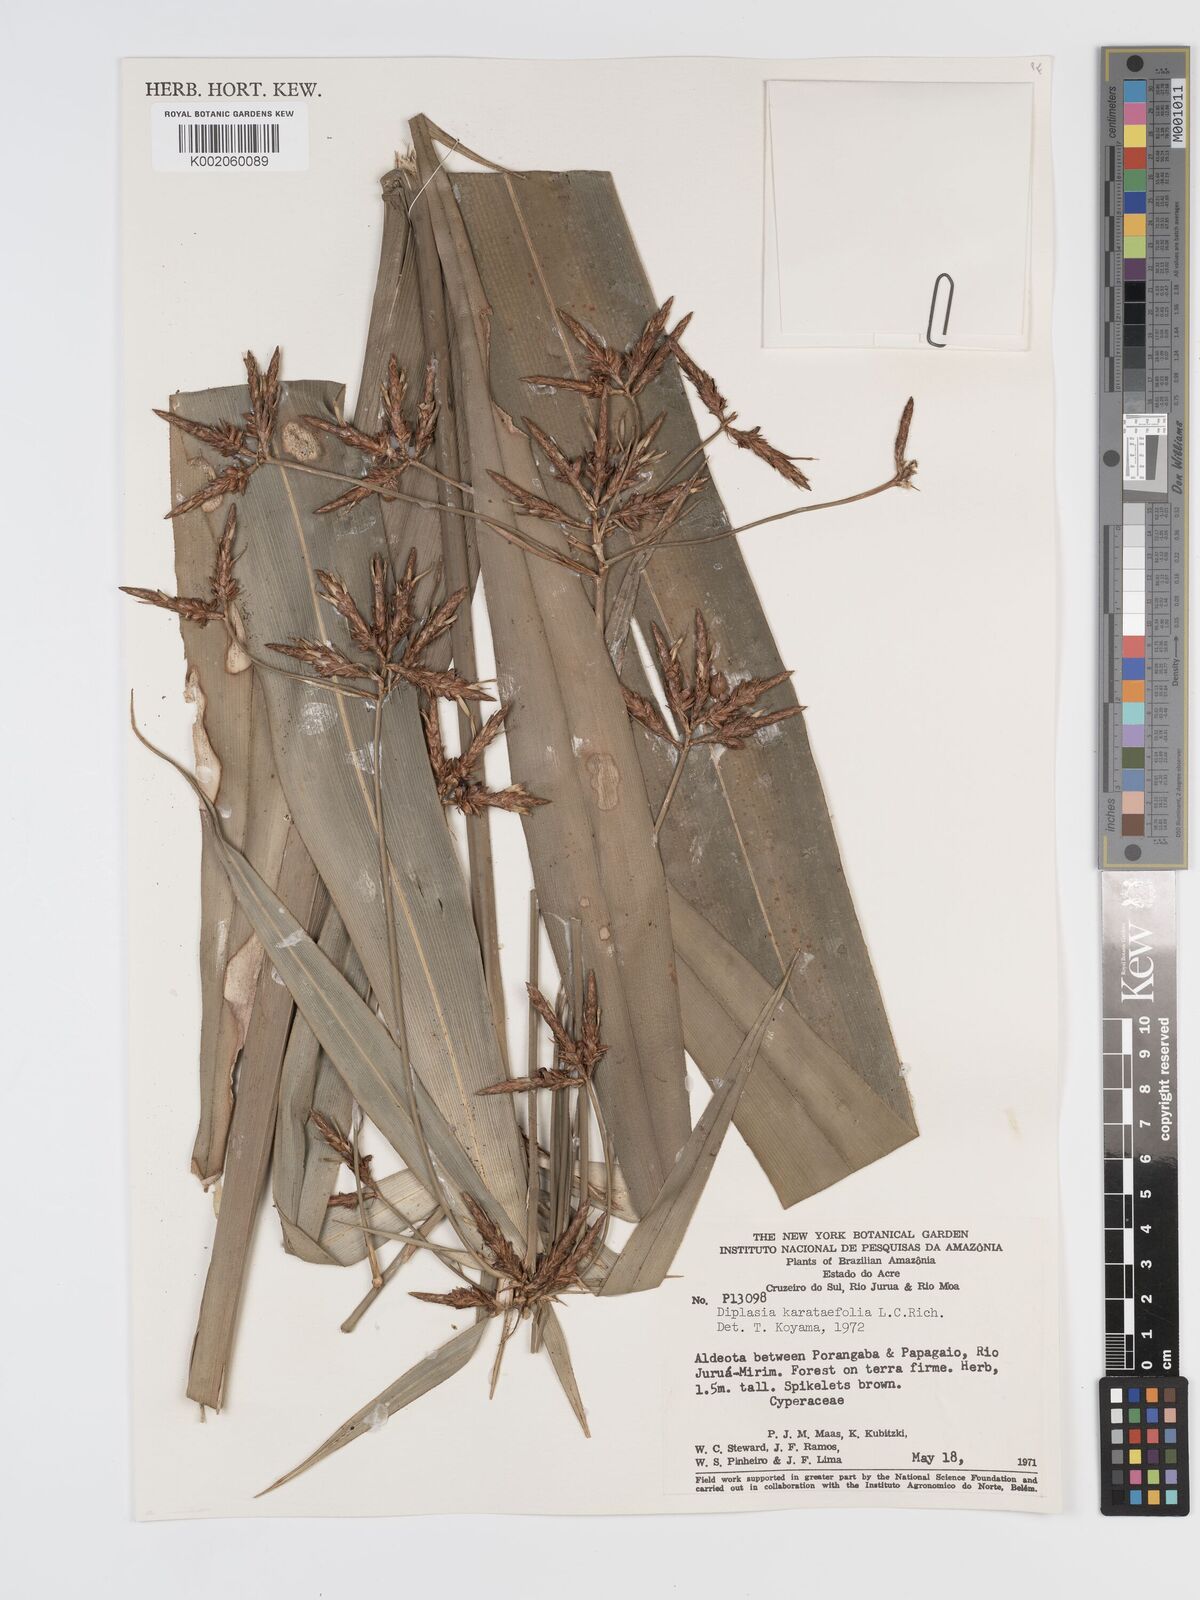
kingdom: Plantae
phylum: Tracheophyta
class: Liliopsida
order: Poales
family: Cyperaceae
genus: Diplasia
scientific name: Diplasia karatifolia
